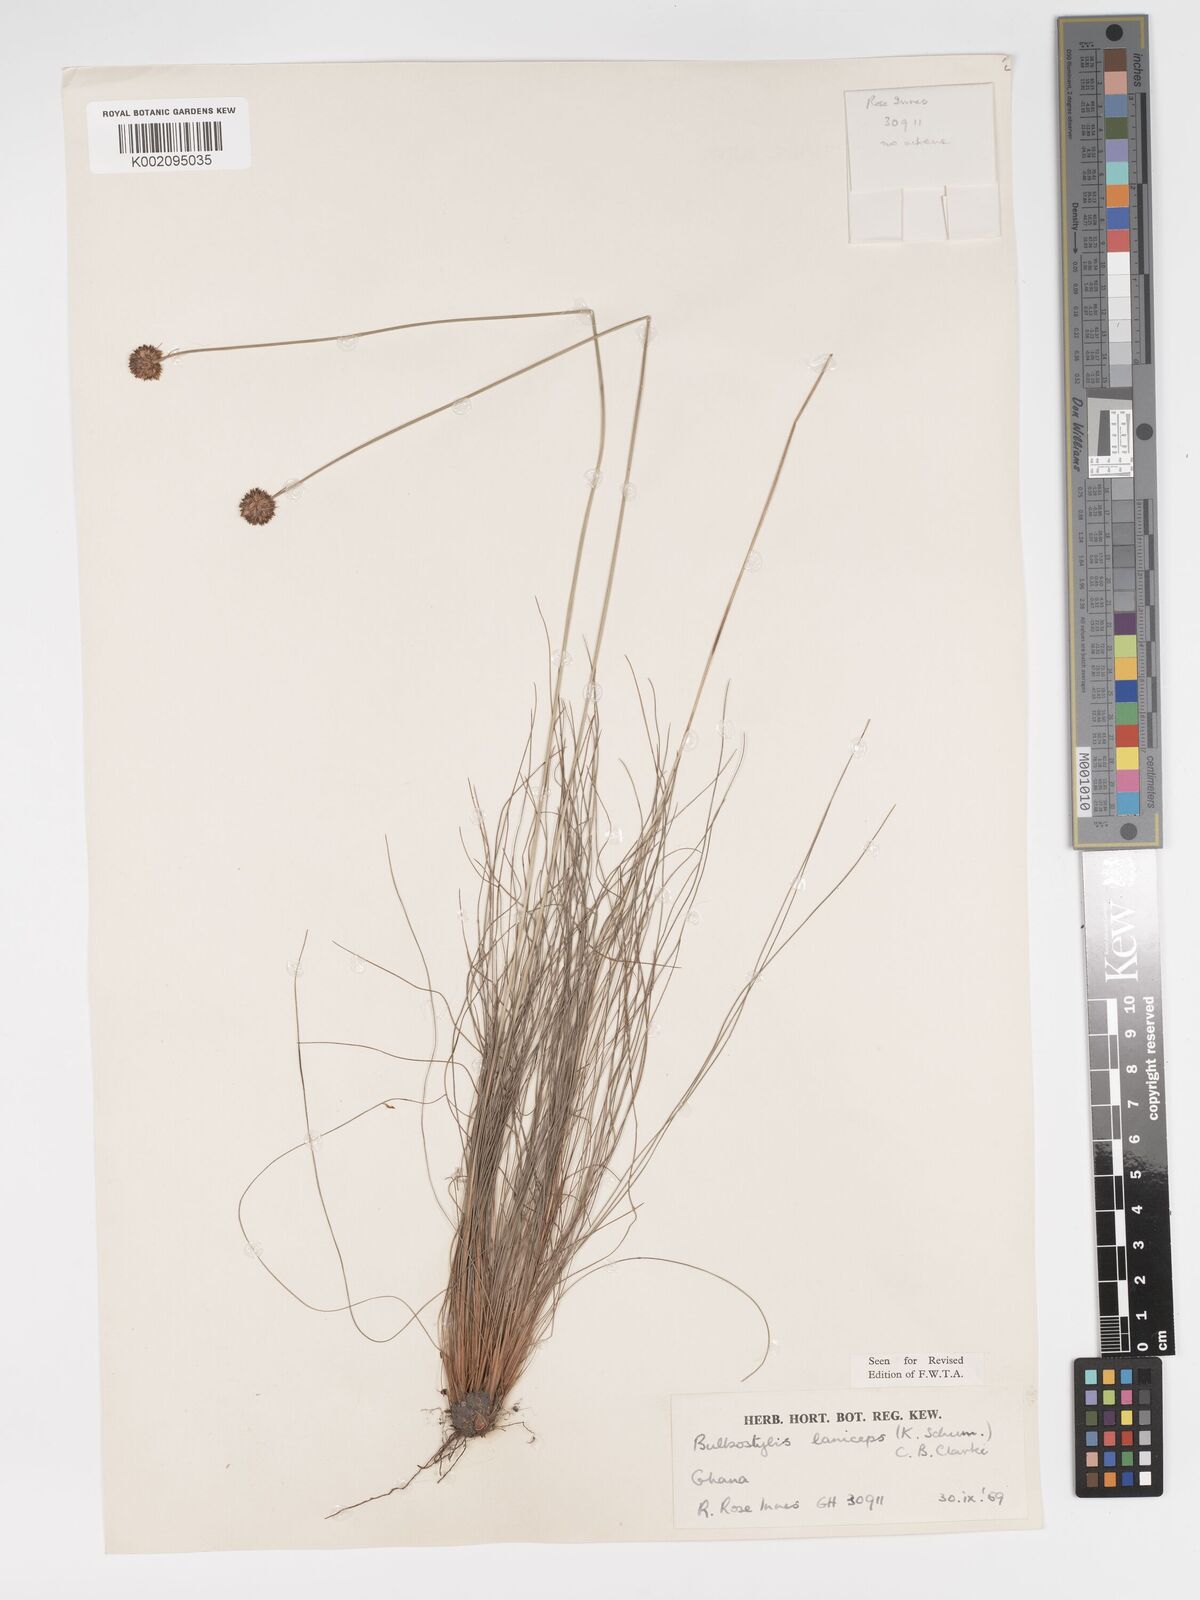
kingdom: Plantae
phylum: Tracheophyta
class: Liliopsida
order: Poales
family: Cyperaceae
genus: Bulbostylis
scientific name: Bulbostylis laniceps
